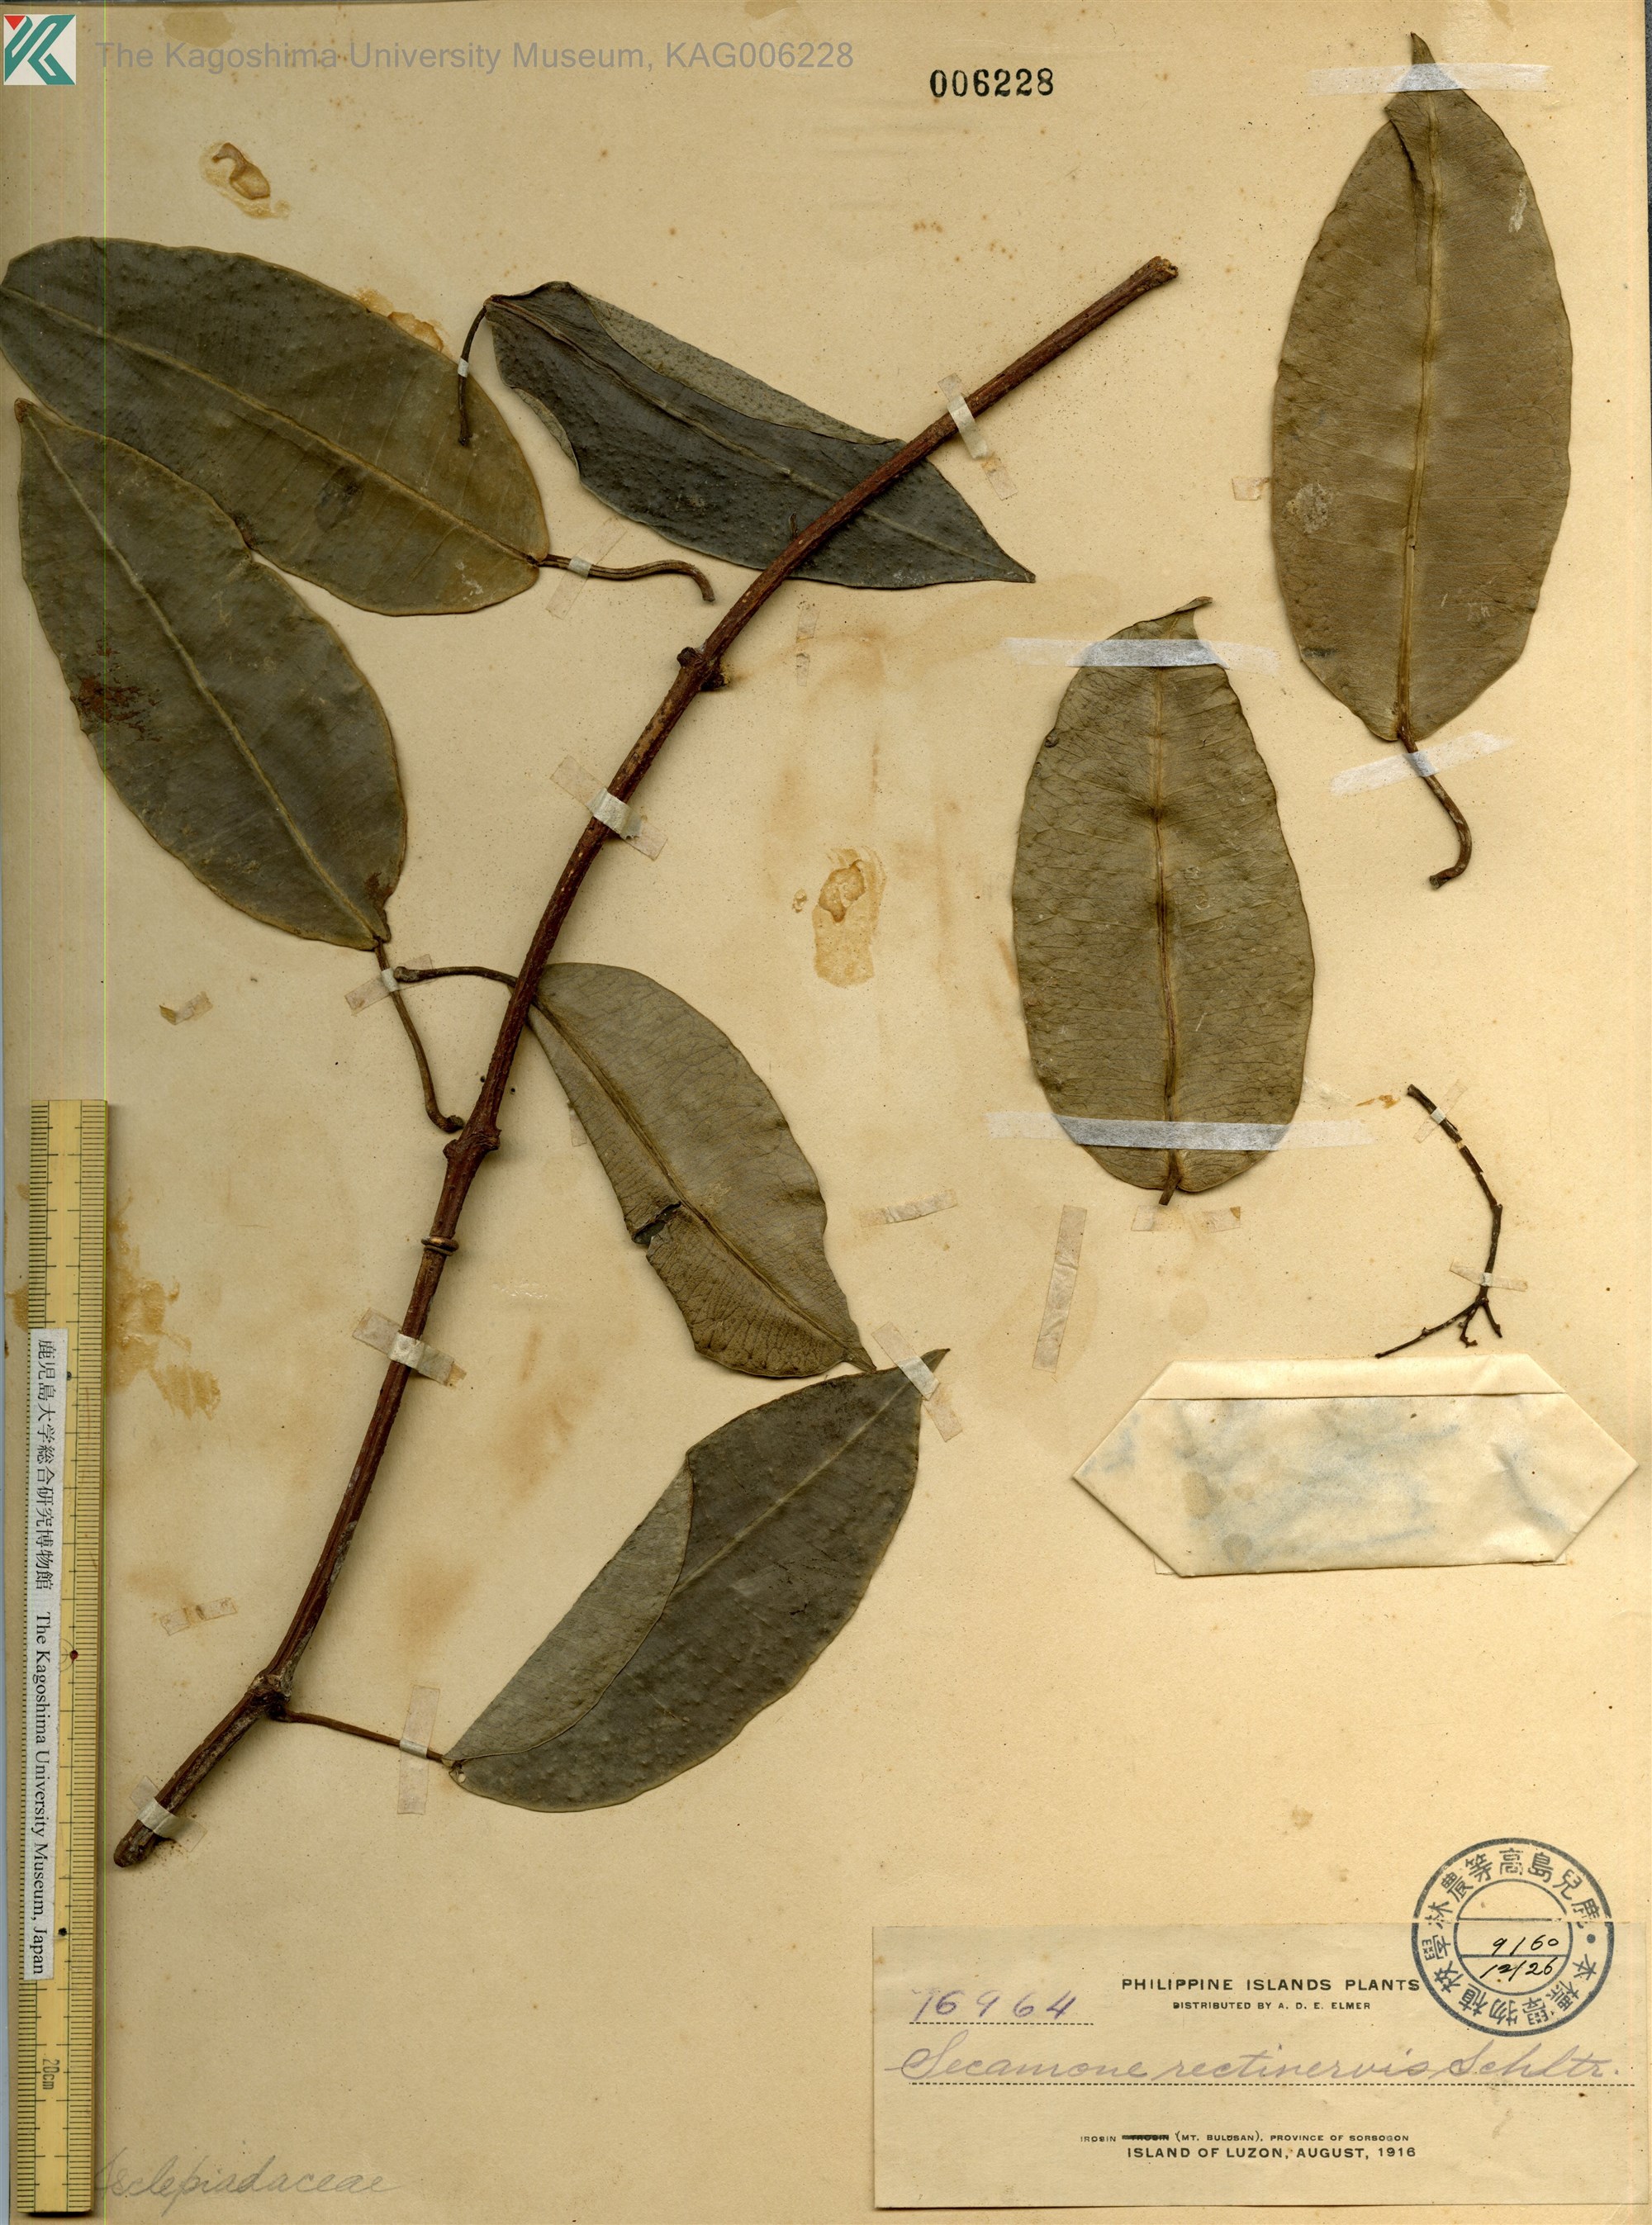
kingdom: Plantae
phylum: Tracheophyta
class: Magnoliopsida
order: Gentianales
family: Apocynaceae
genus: Genianthus
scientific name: Genianthus rectinervis
